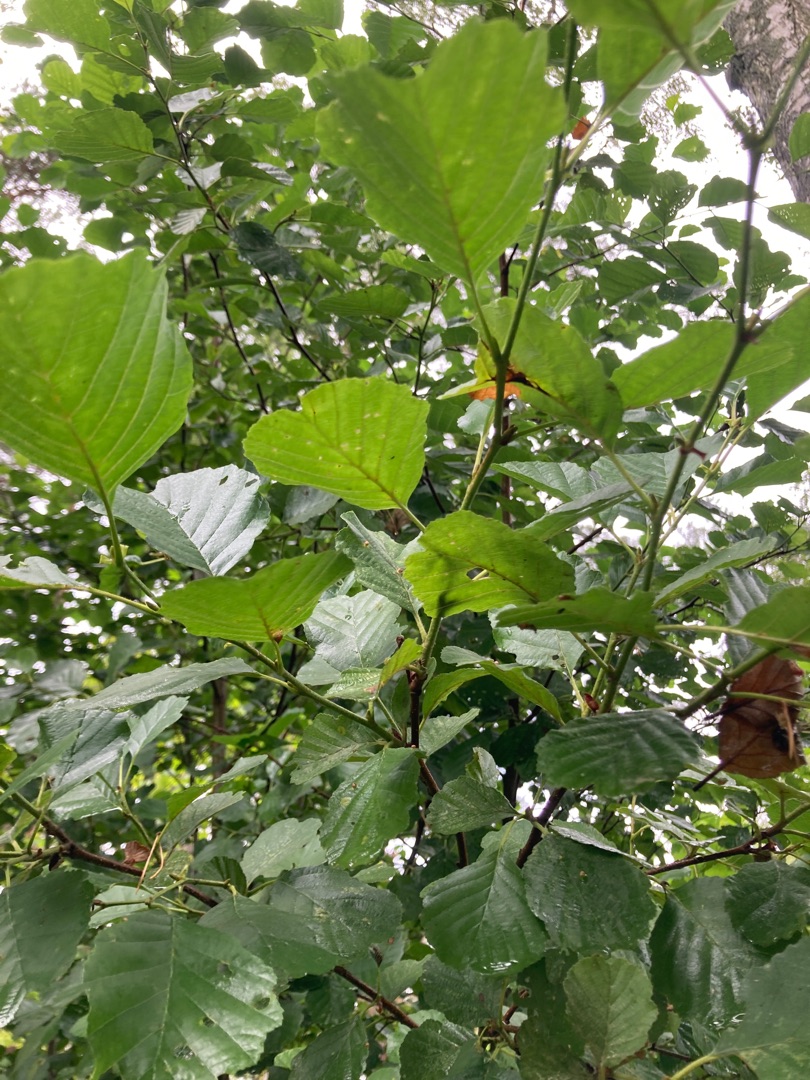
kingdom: Plantae
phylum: Tracheophyta
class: Magnoliopsida
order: Fagales
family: Betulaceae
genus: Alnus
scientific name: Alnus glutinosa
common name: Rød-el
